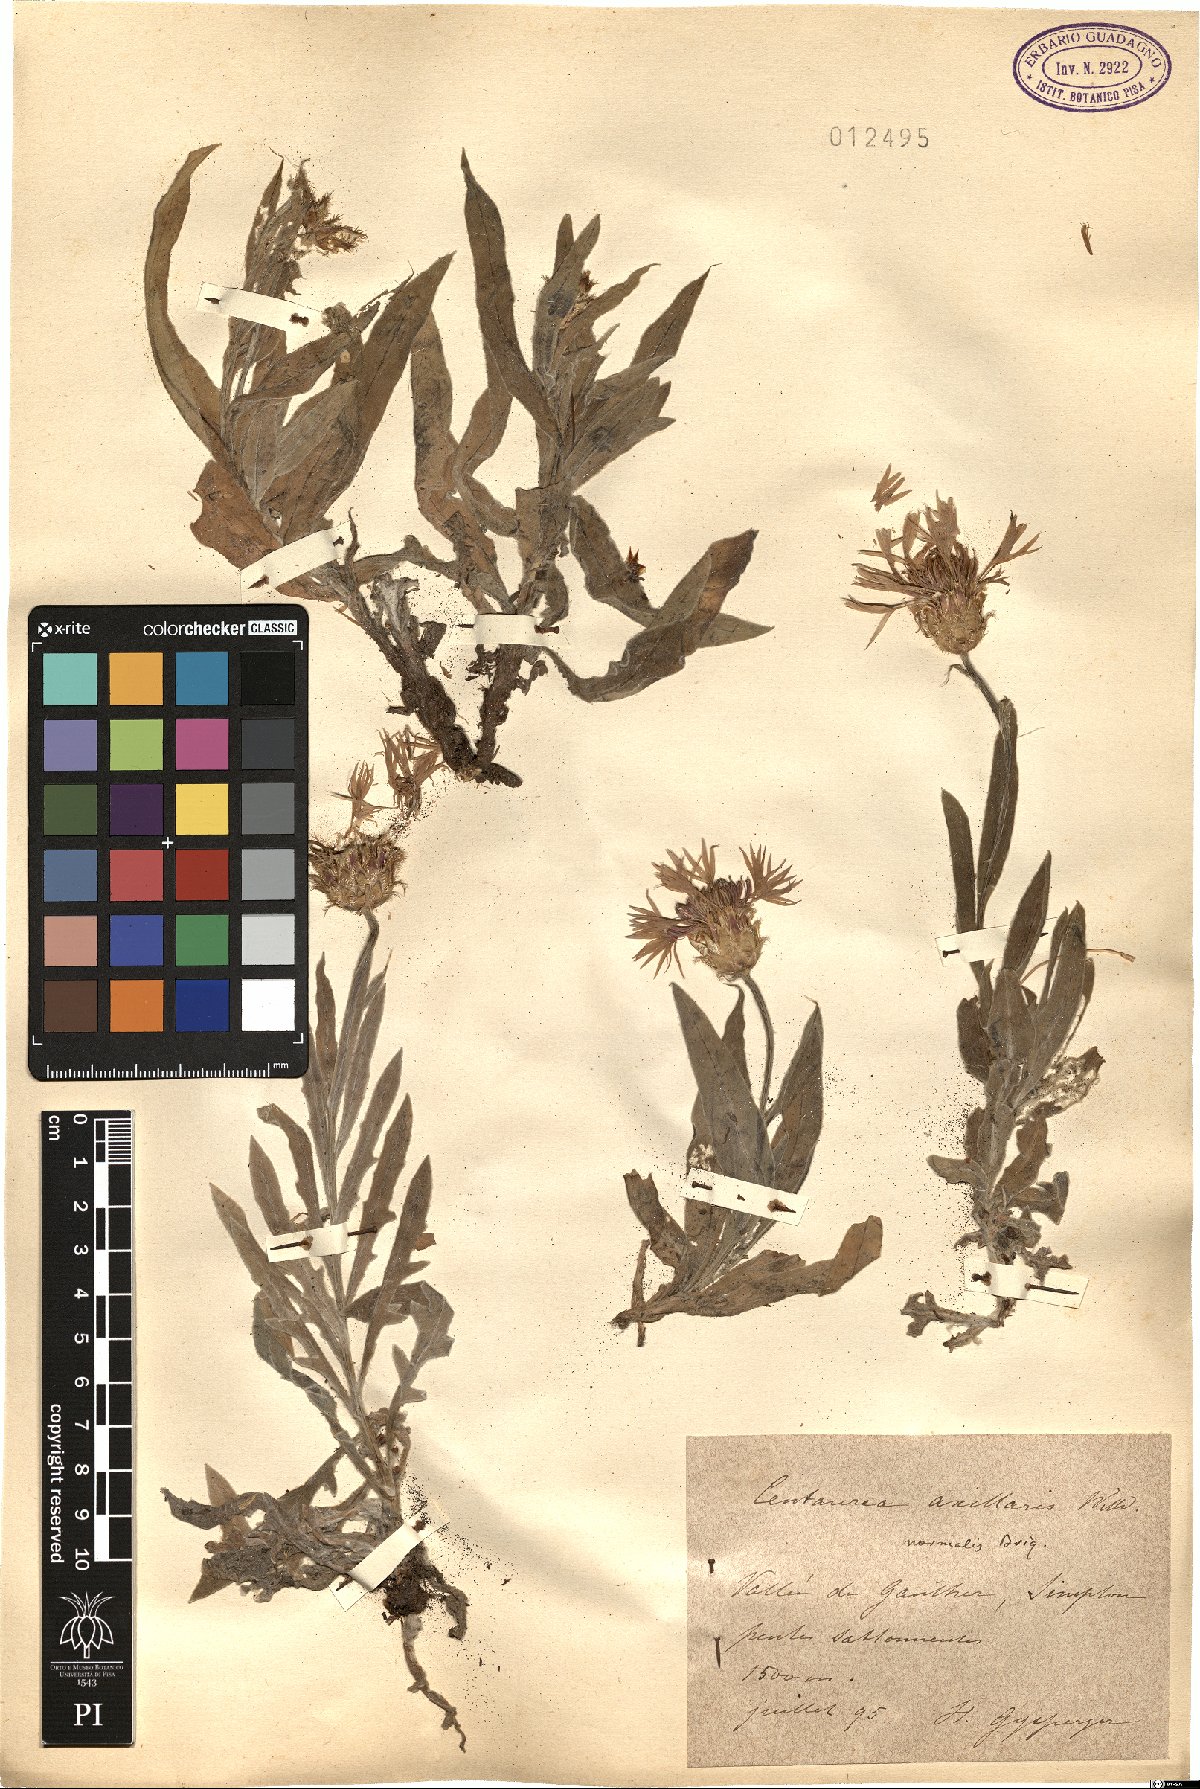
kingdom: Plantae
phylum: Tracheophyta
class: Magnoliopsida
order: Asterales
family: Asteraceae
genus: Centaurea
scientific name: Centaurea triumfettii
